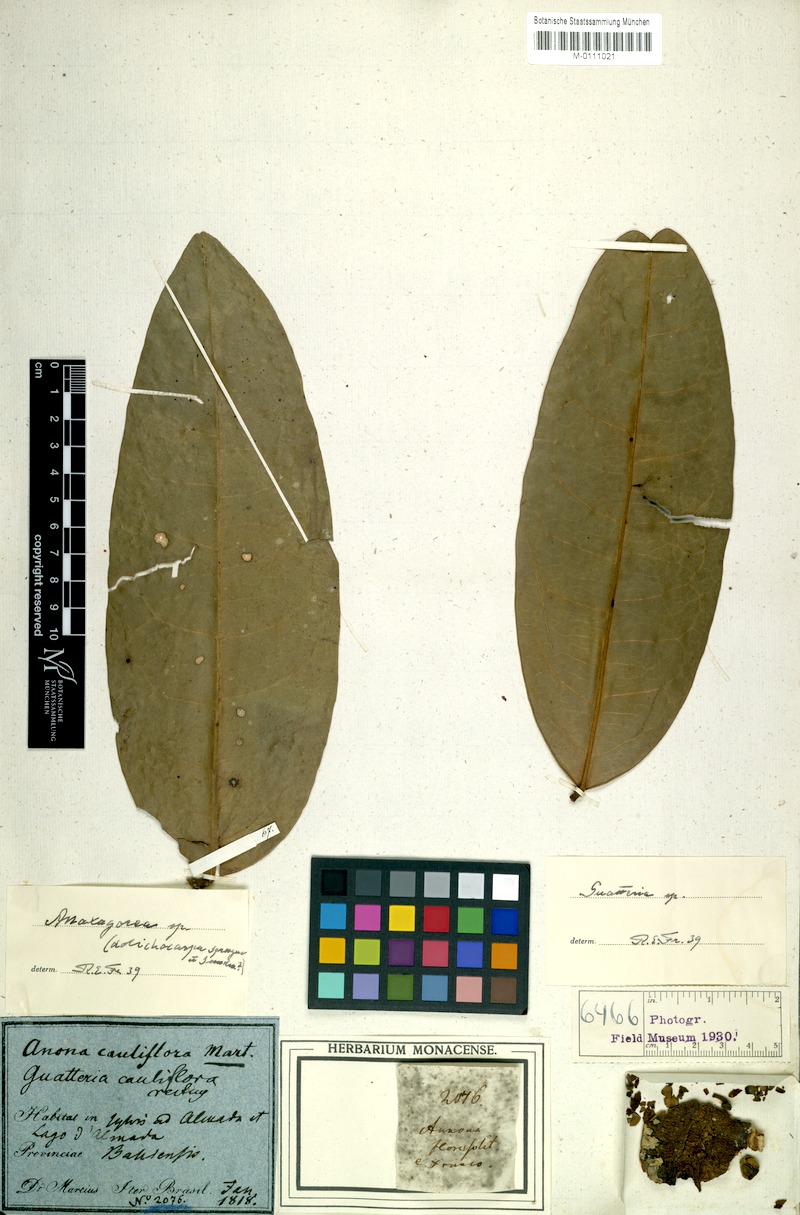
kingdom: Plantae
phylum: Tracheophyta
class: Magnoliopsida
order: Magnoliales
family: Annonaceae
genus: Guatteria
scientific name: Guatteria scandens
